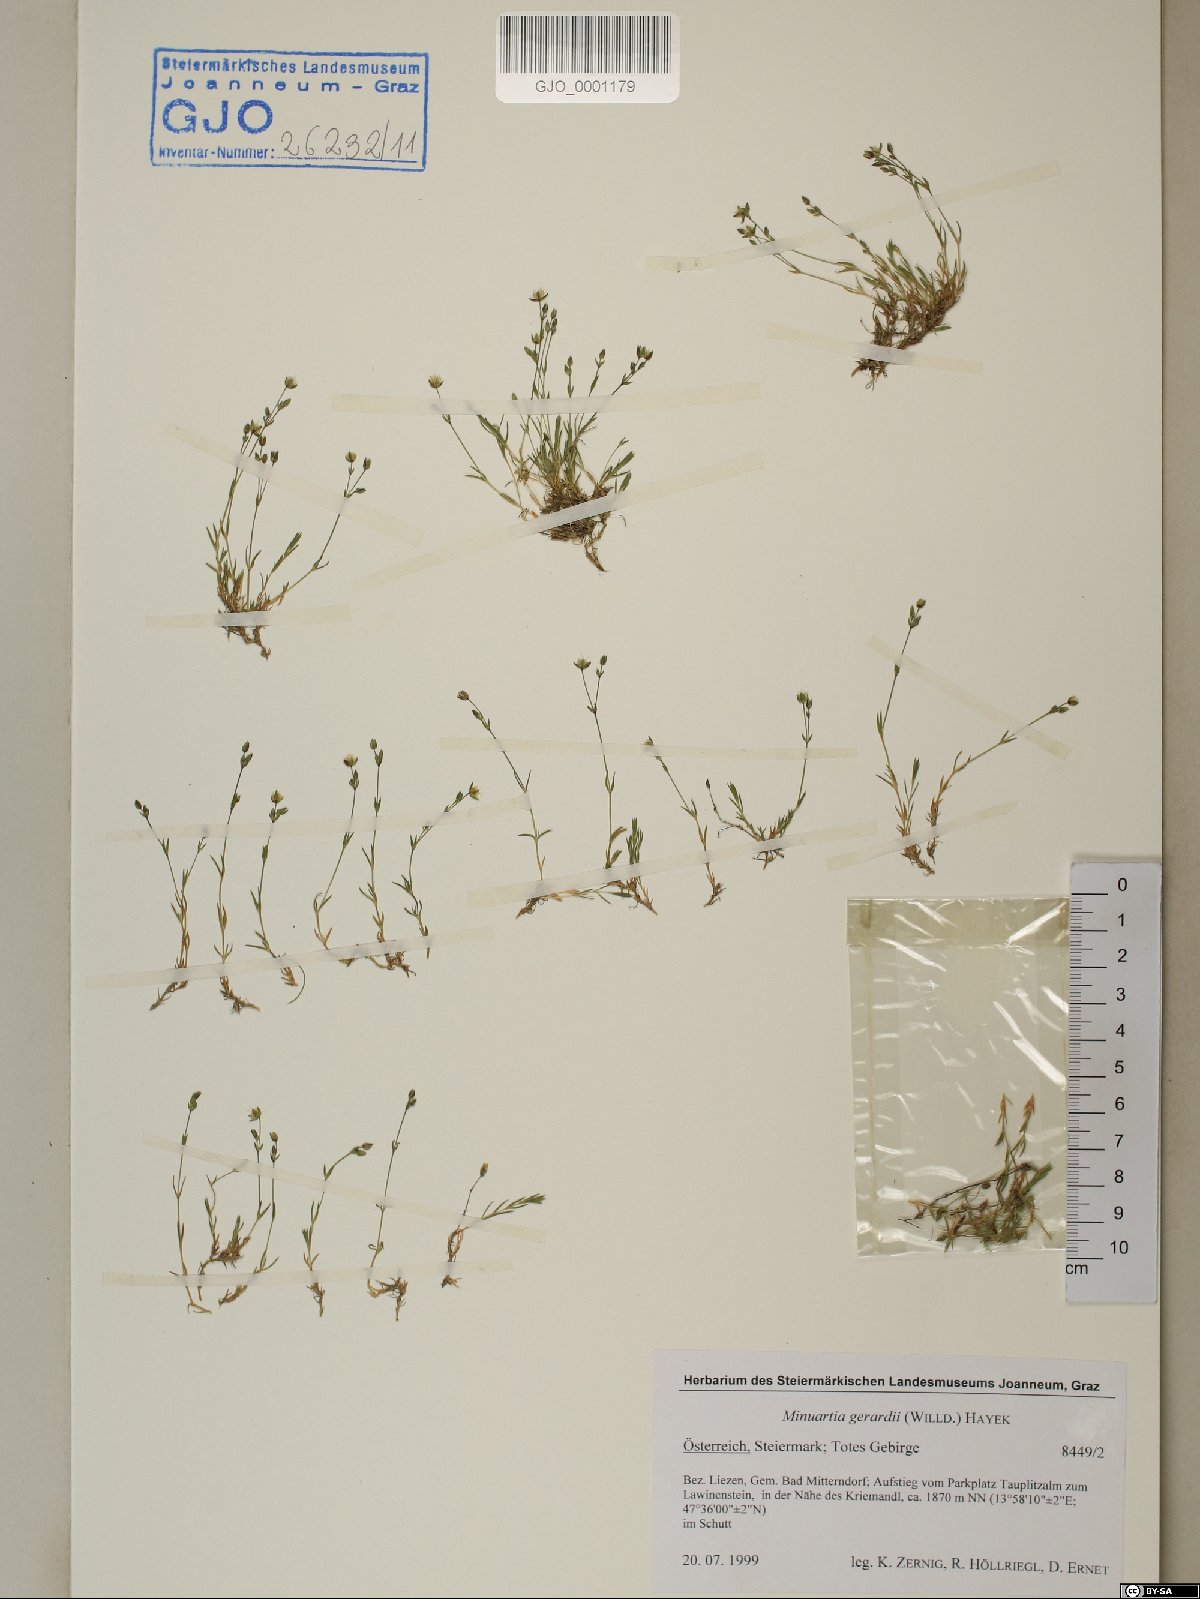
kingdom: Plantae
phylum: Tracheophyta
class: Magnoliopsida
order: Caryophyllales
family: Caryophyllaceae
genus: Sabulina
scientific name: Sabulina verna
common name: Spring sandwort
